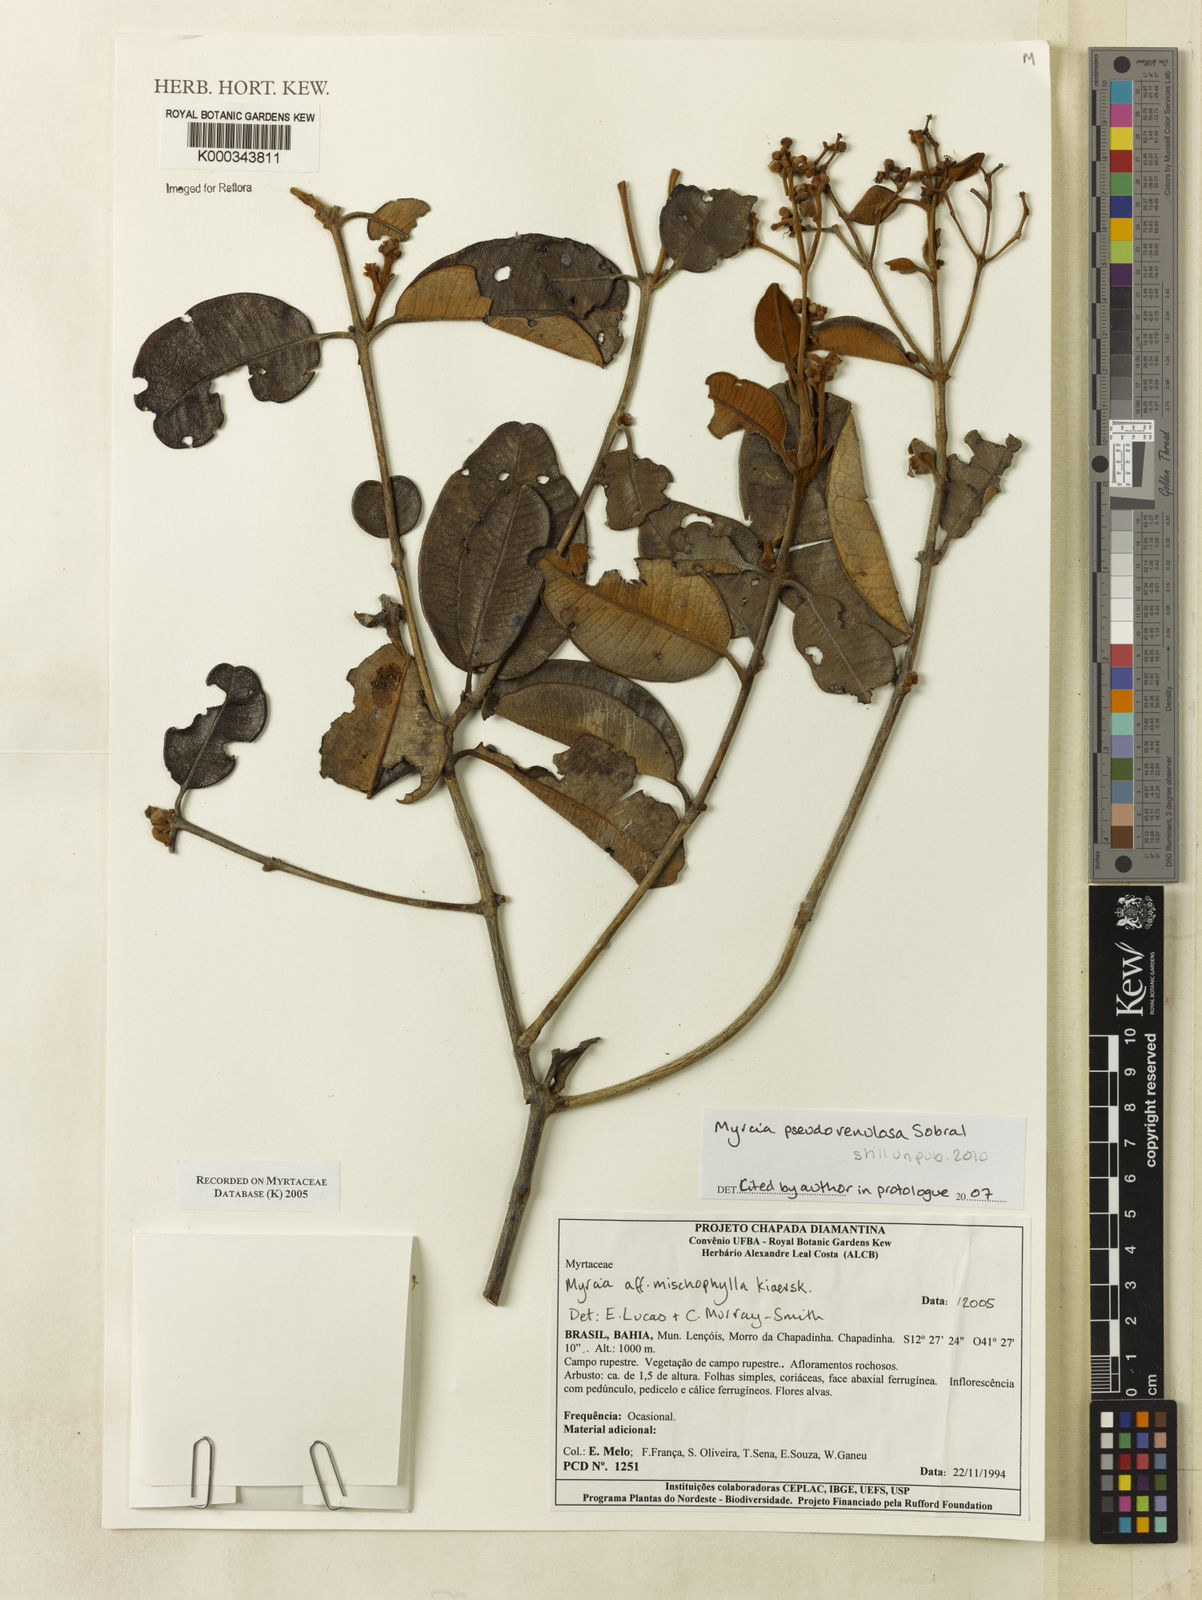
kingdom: Plantae
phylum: Tracheophyta
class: Magnoliopsida
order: Myrtales
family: Myrtaceae
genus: Myrcia
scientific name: Myrcia mischophylla
